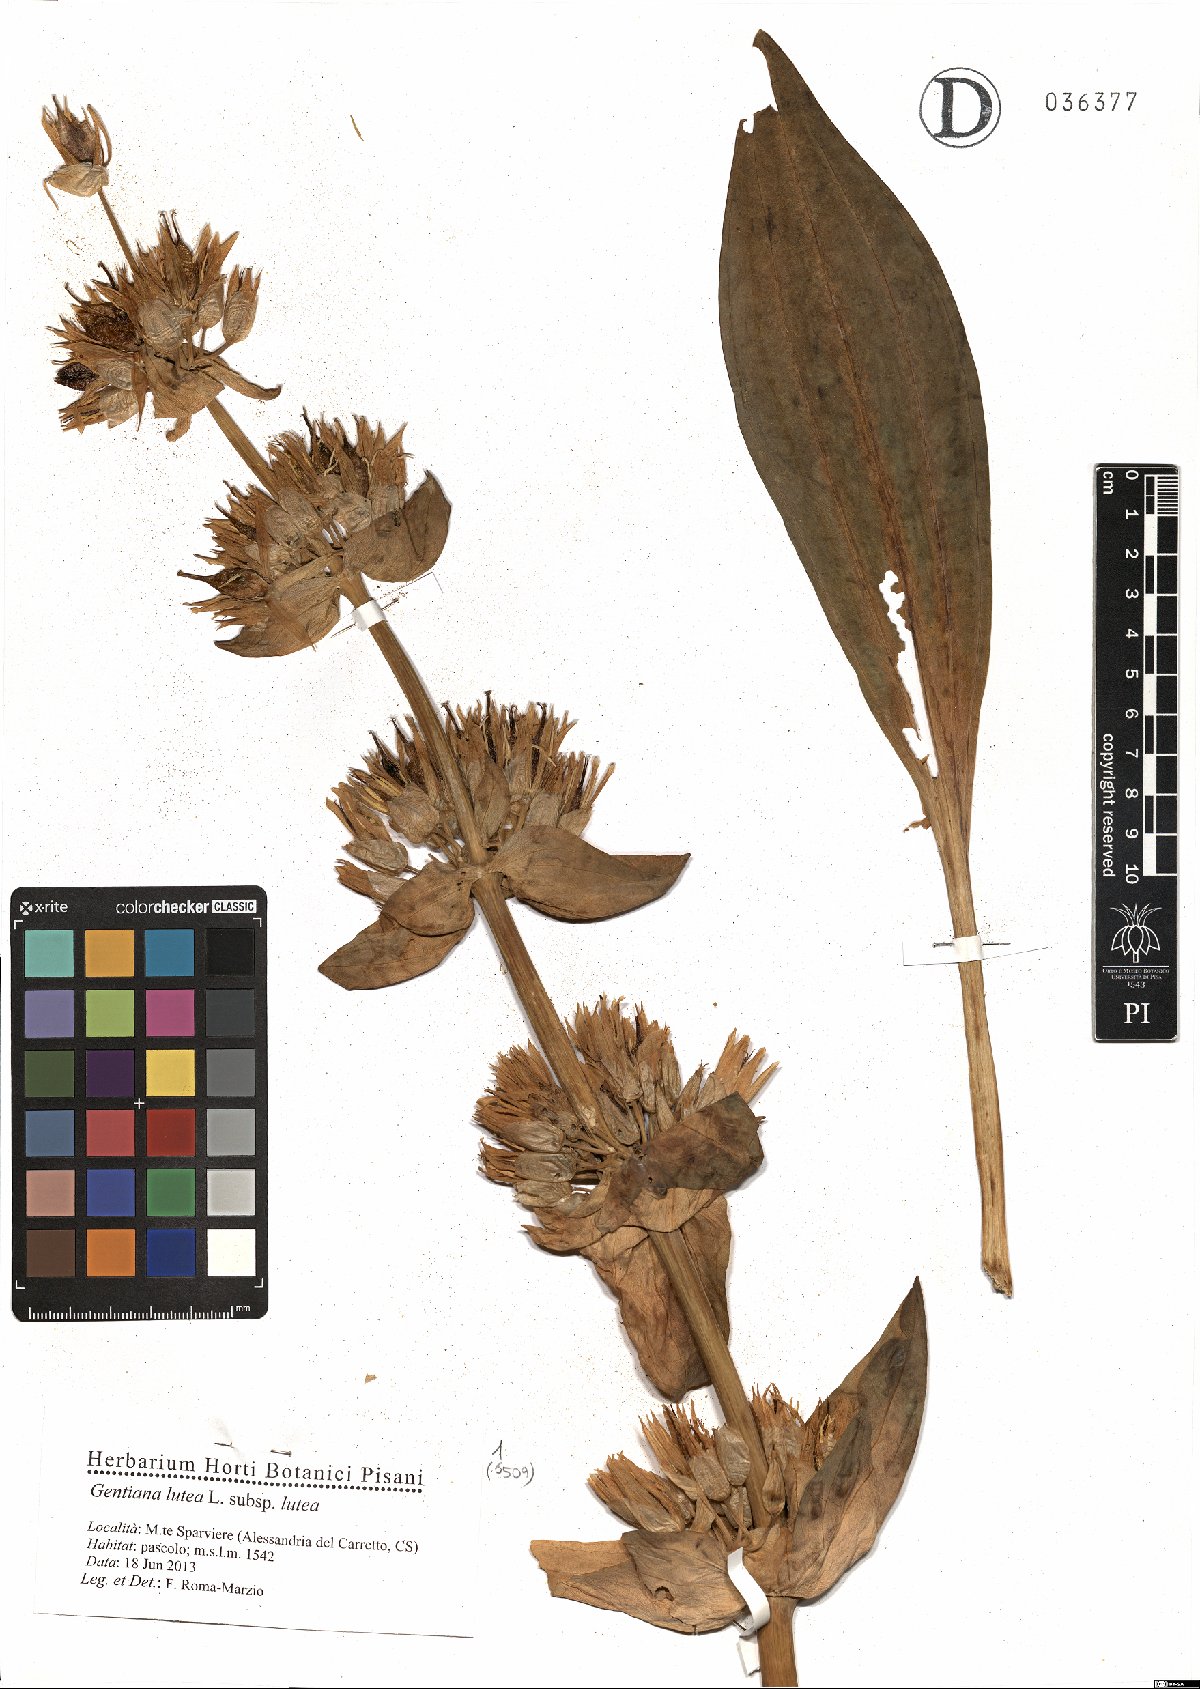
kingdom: Plantae
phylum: Tracheophyta
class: Magnoliopsida
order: Gentianales
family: Gentianaceae
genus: Gentiana
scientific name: Gentiana lutea
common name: Great yellow gentian
